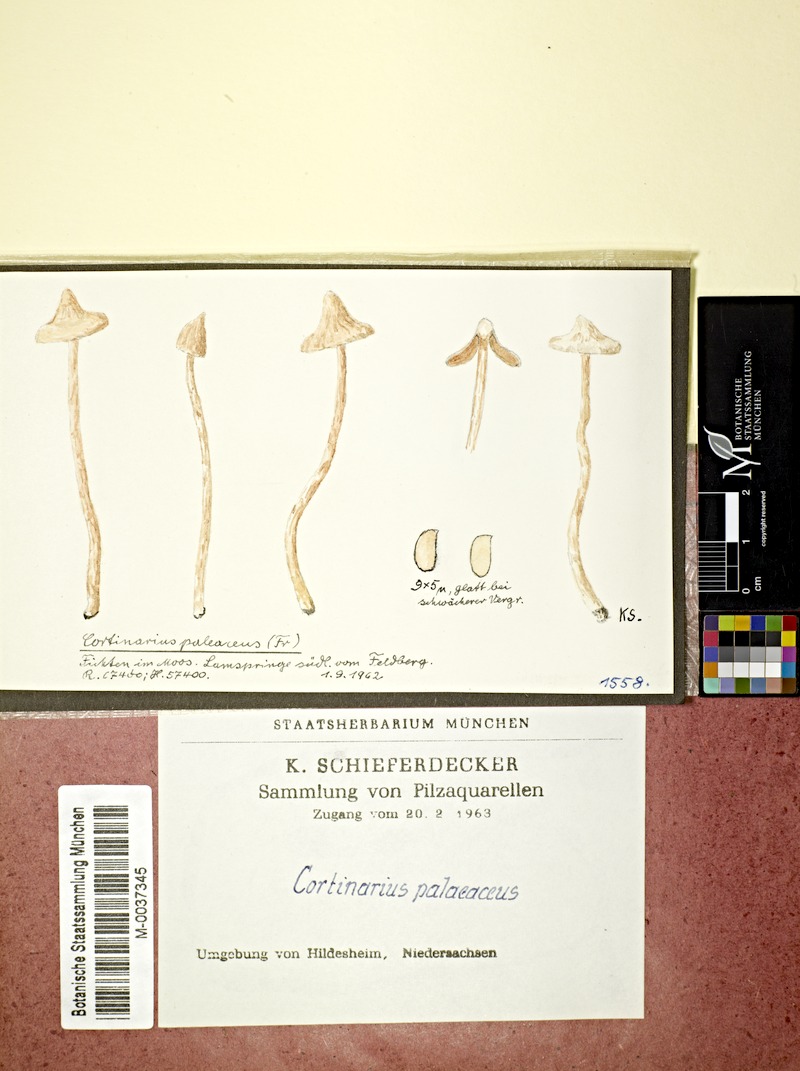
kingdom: Fungi
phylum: Basidiomycota
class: Agaricomycetes
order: Agaricales
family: Cortinariaceae
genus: Cortinarius
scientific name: Cortinarius hemitrichus
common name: Frosty webcap
